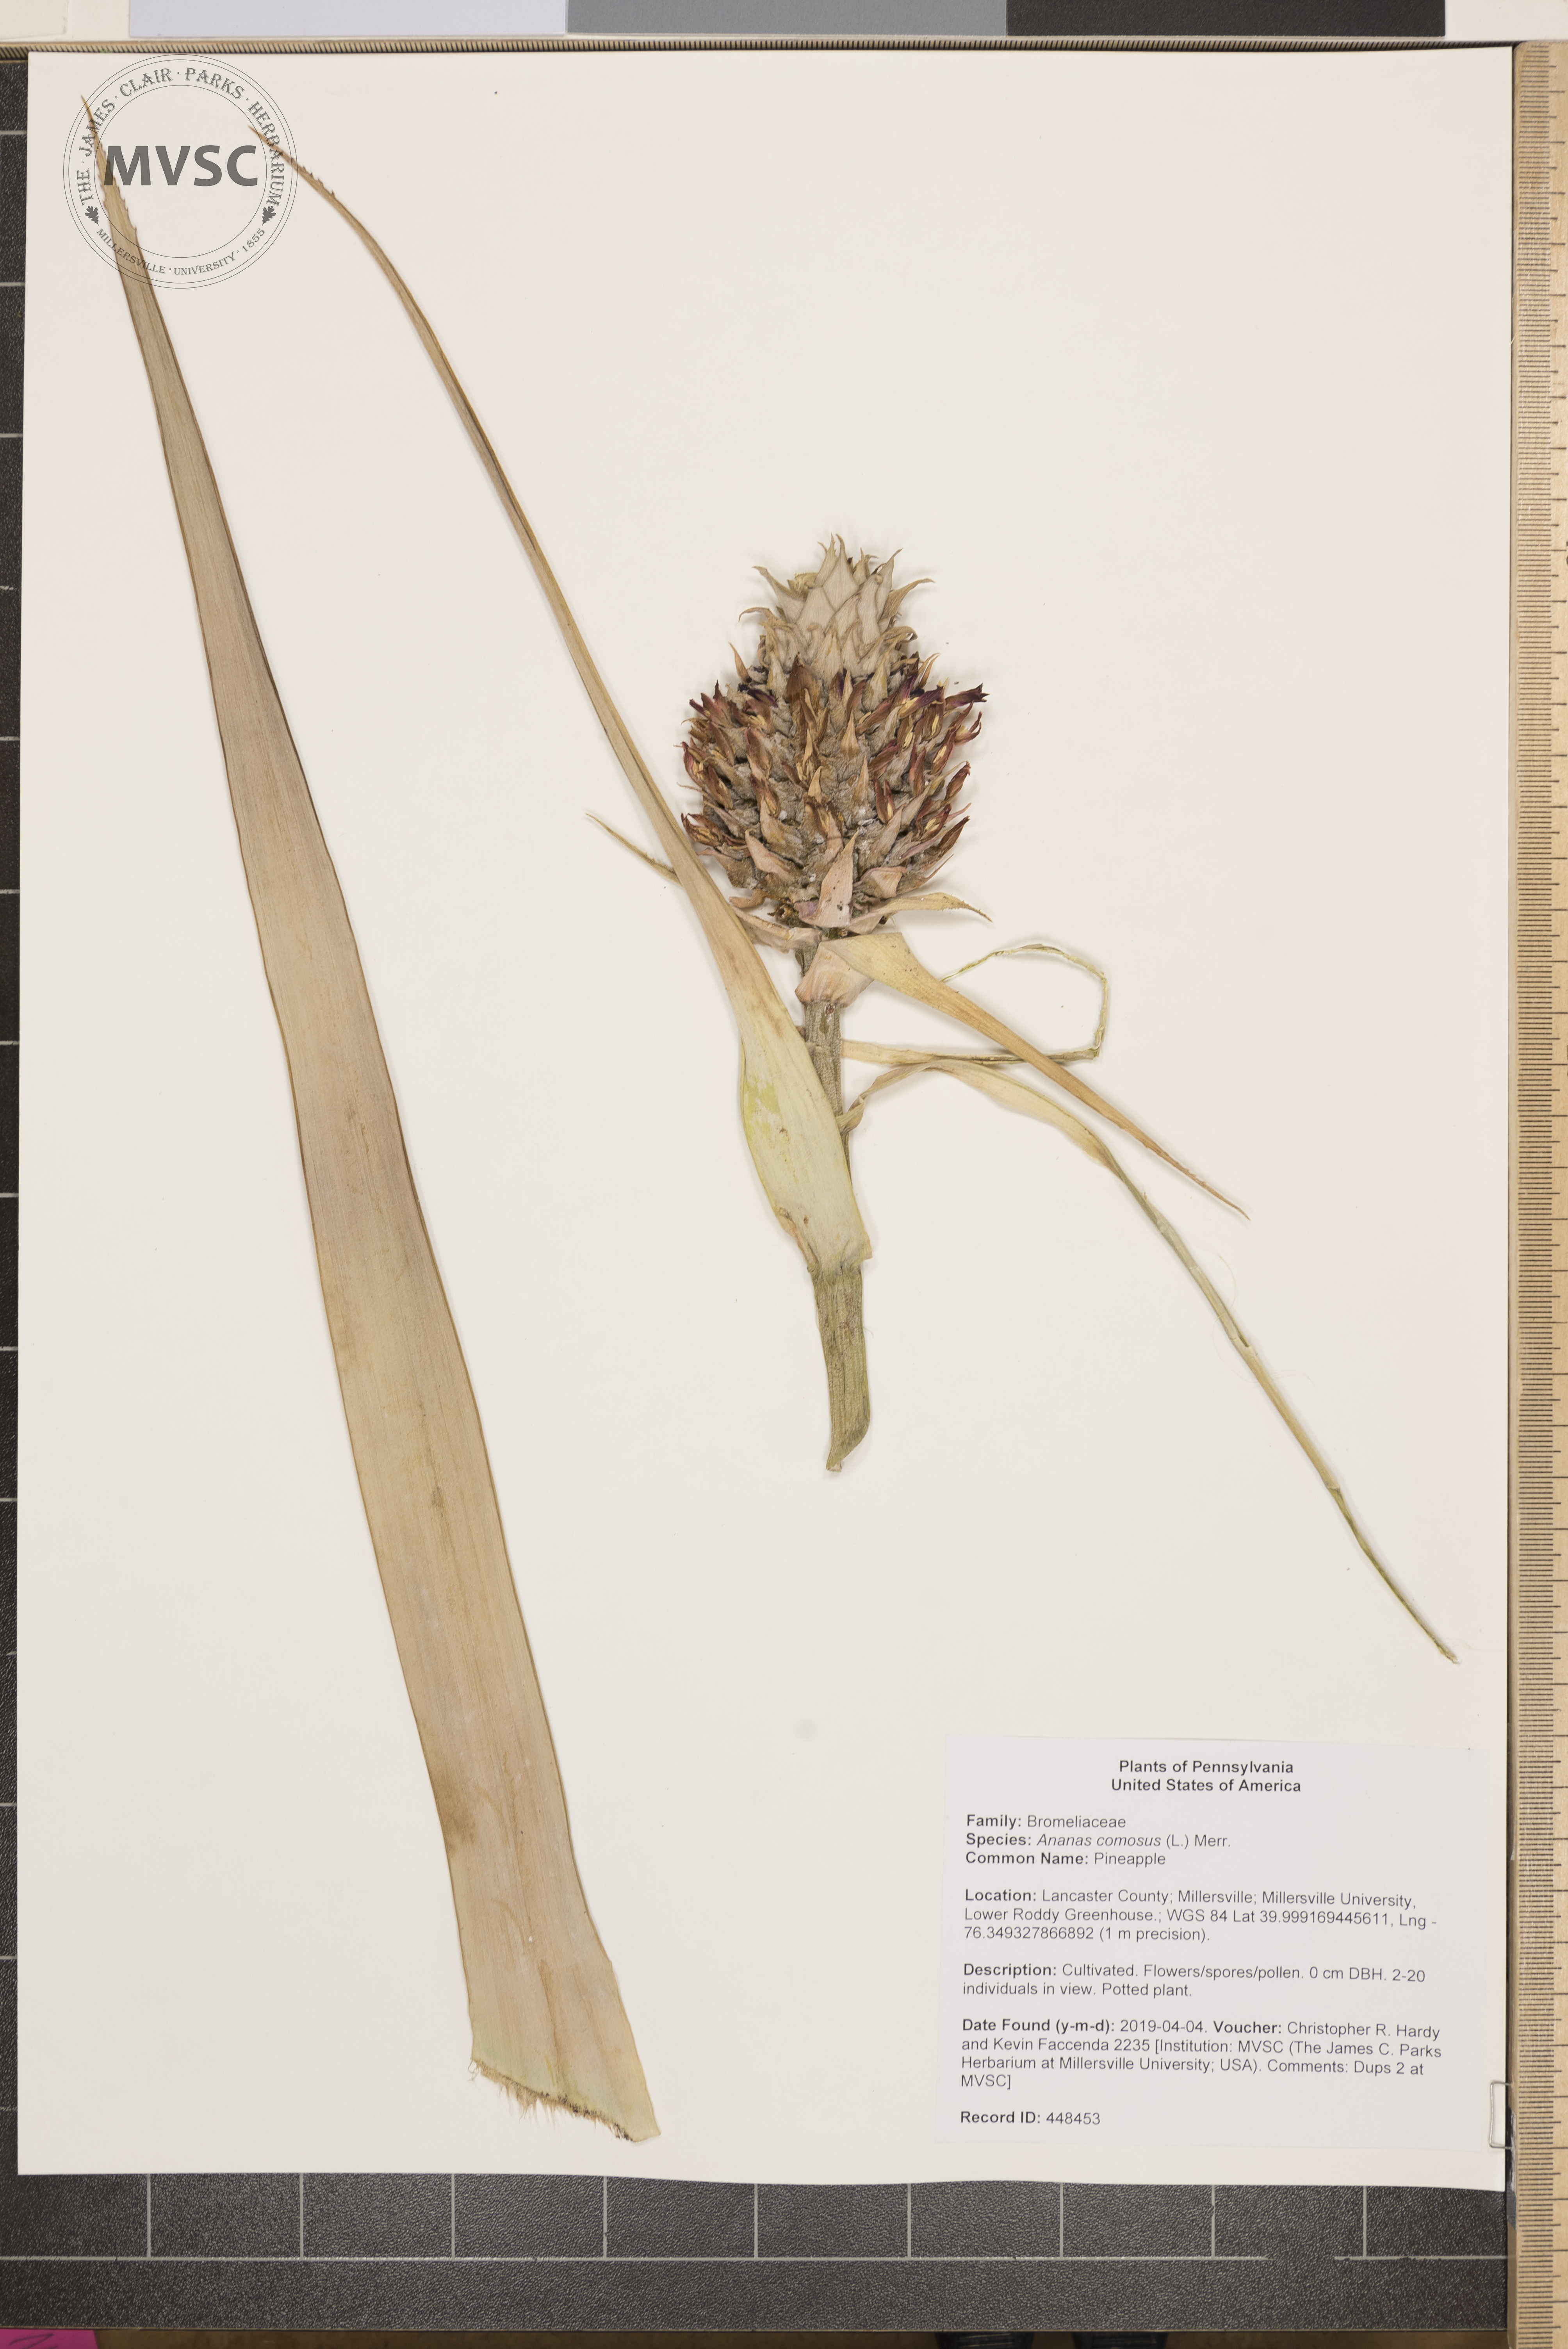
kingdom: Plantae
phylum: Tracheophyta
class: Liliopsida
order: Poales
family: Bromeliaceae
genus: Ananas
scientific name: Ananas comosus
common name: Pineapple
